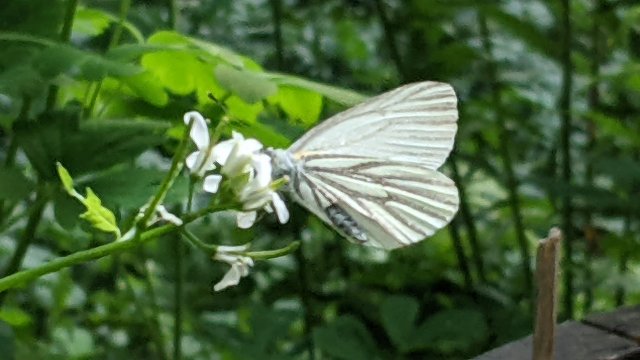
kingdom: Animalia
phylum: Arthropoda
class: Insecta
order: Lepidoptera
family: Pieridae
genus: Pieris
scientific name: Pieris oleracea
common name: Mustard White
